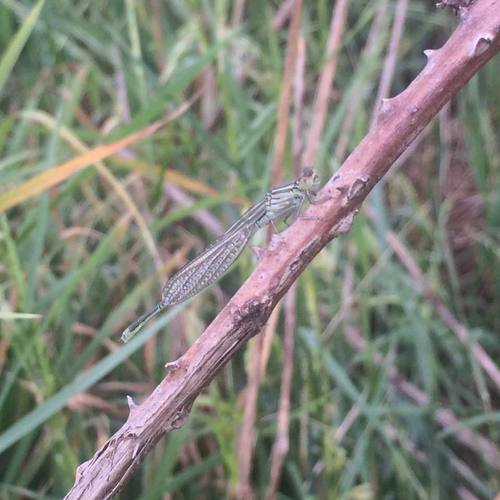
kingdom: Animalia
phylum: Arthropoda
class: Insecta
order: Odonata
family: Coenagrionidae
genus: Erythromma
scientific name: Erythromma lindenii
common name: Blue-eye
